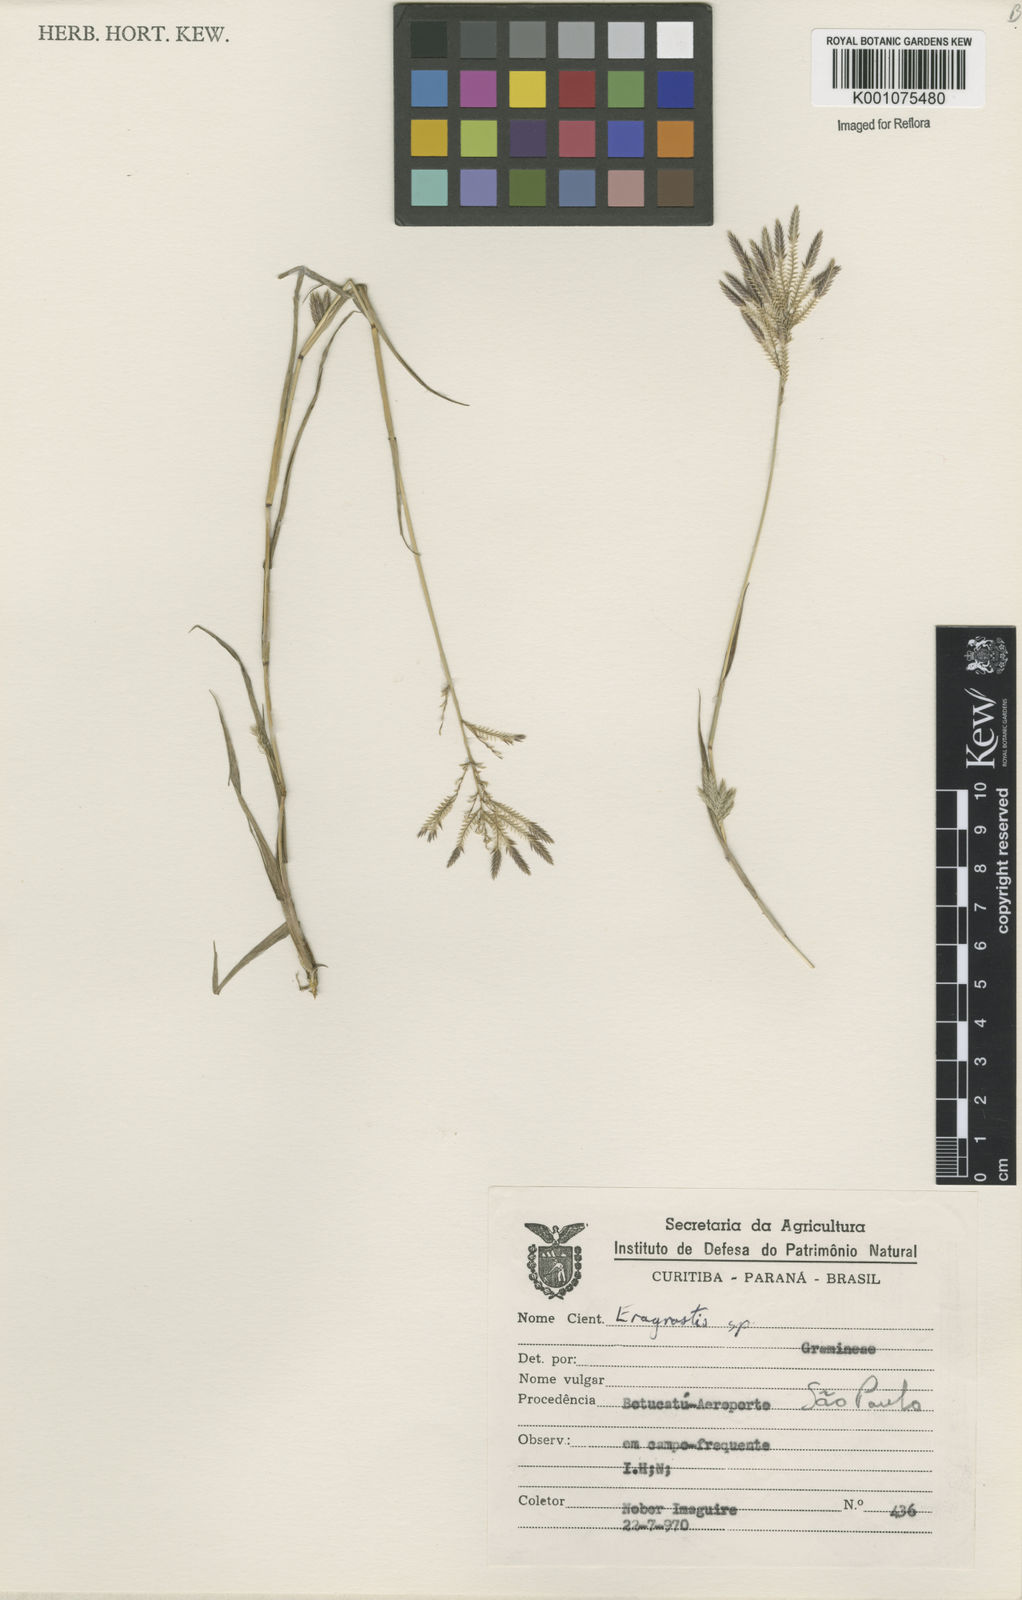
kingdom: Plantae
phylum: Tracheophyta
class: Liliopsida
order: Poales
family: Poaceae
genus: Eragrostis
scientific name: Eragrostis maypurensis
